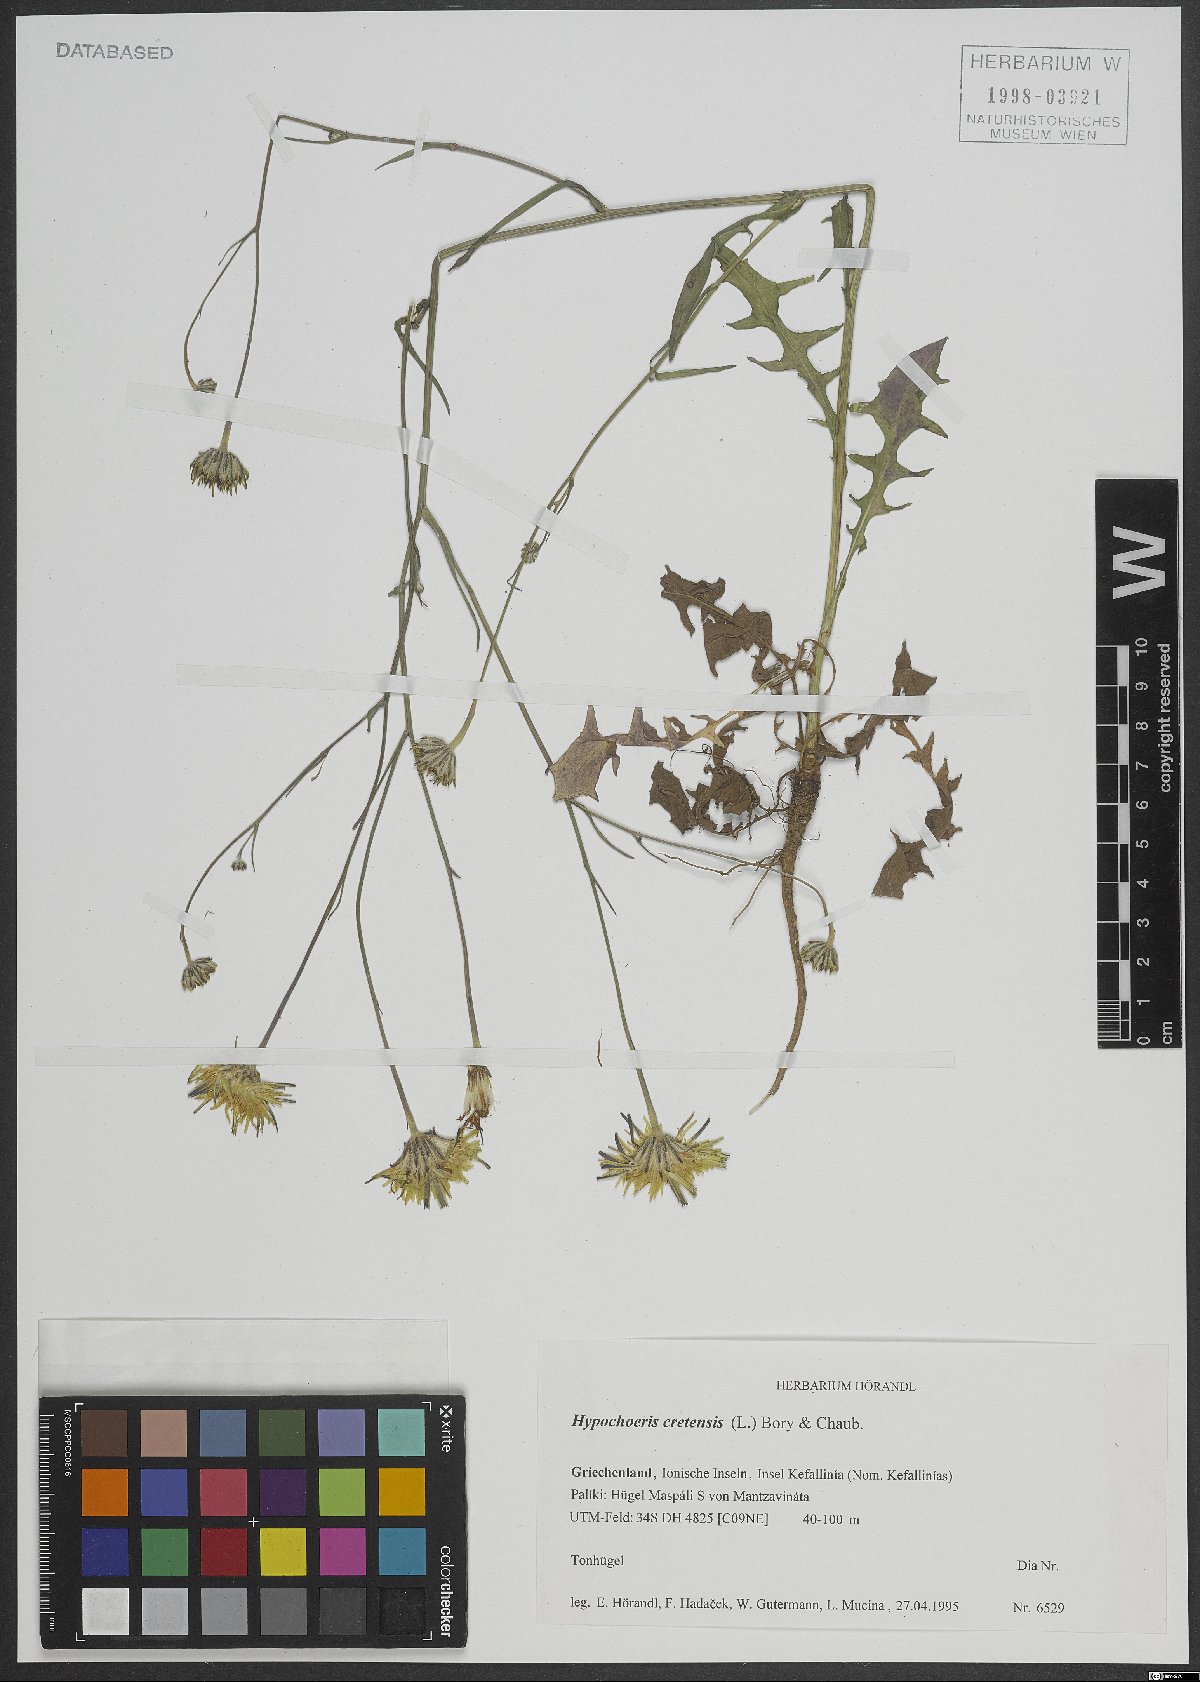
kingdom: Plantae
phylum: Tracheophyta
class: Magnoliopsida
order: Asterales
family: Asteraceae
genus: Hypochaeris
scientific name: Hypochaeris cretensis
